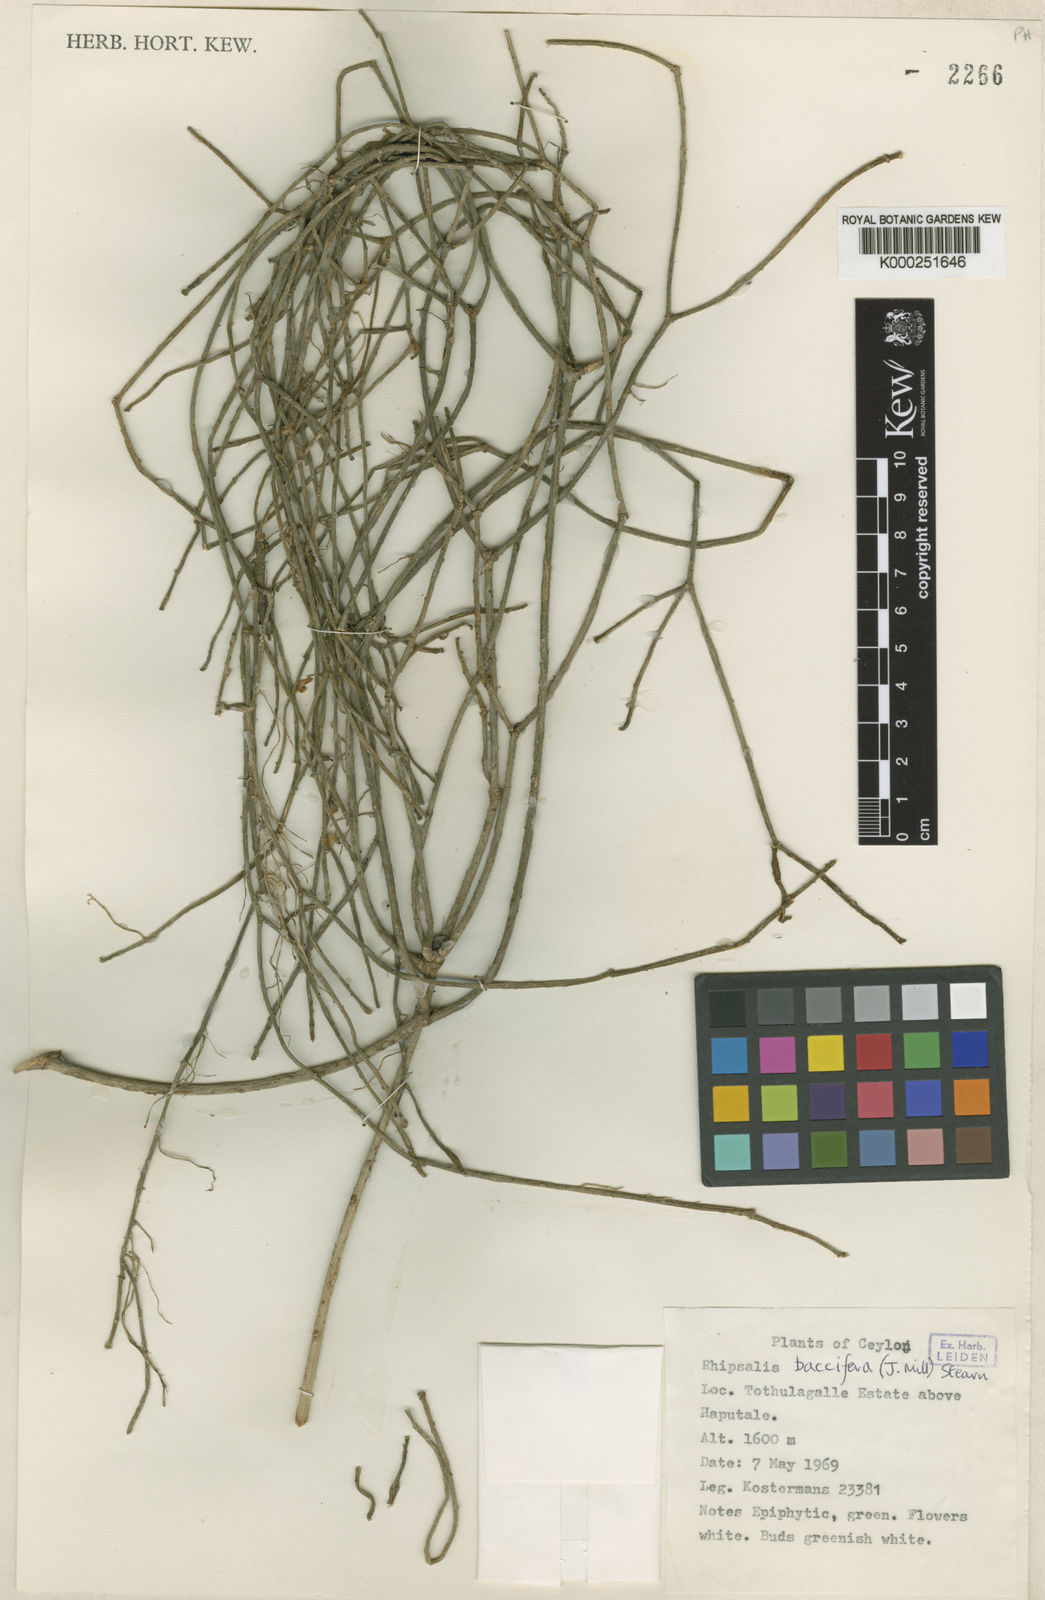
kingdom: Plantae
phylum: Tracheophyta
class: Magnoliopsida
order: Caryophyllales
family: Cactaceae
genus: Rhipsalis
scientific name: Rhipsalis baccifera
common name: Mistletoe cactus
